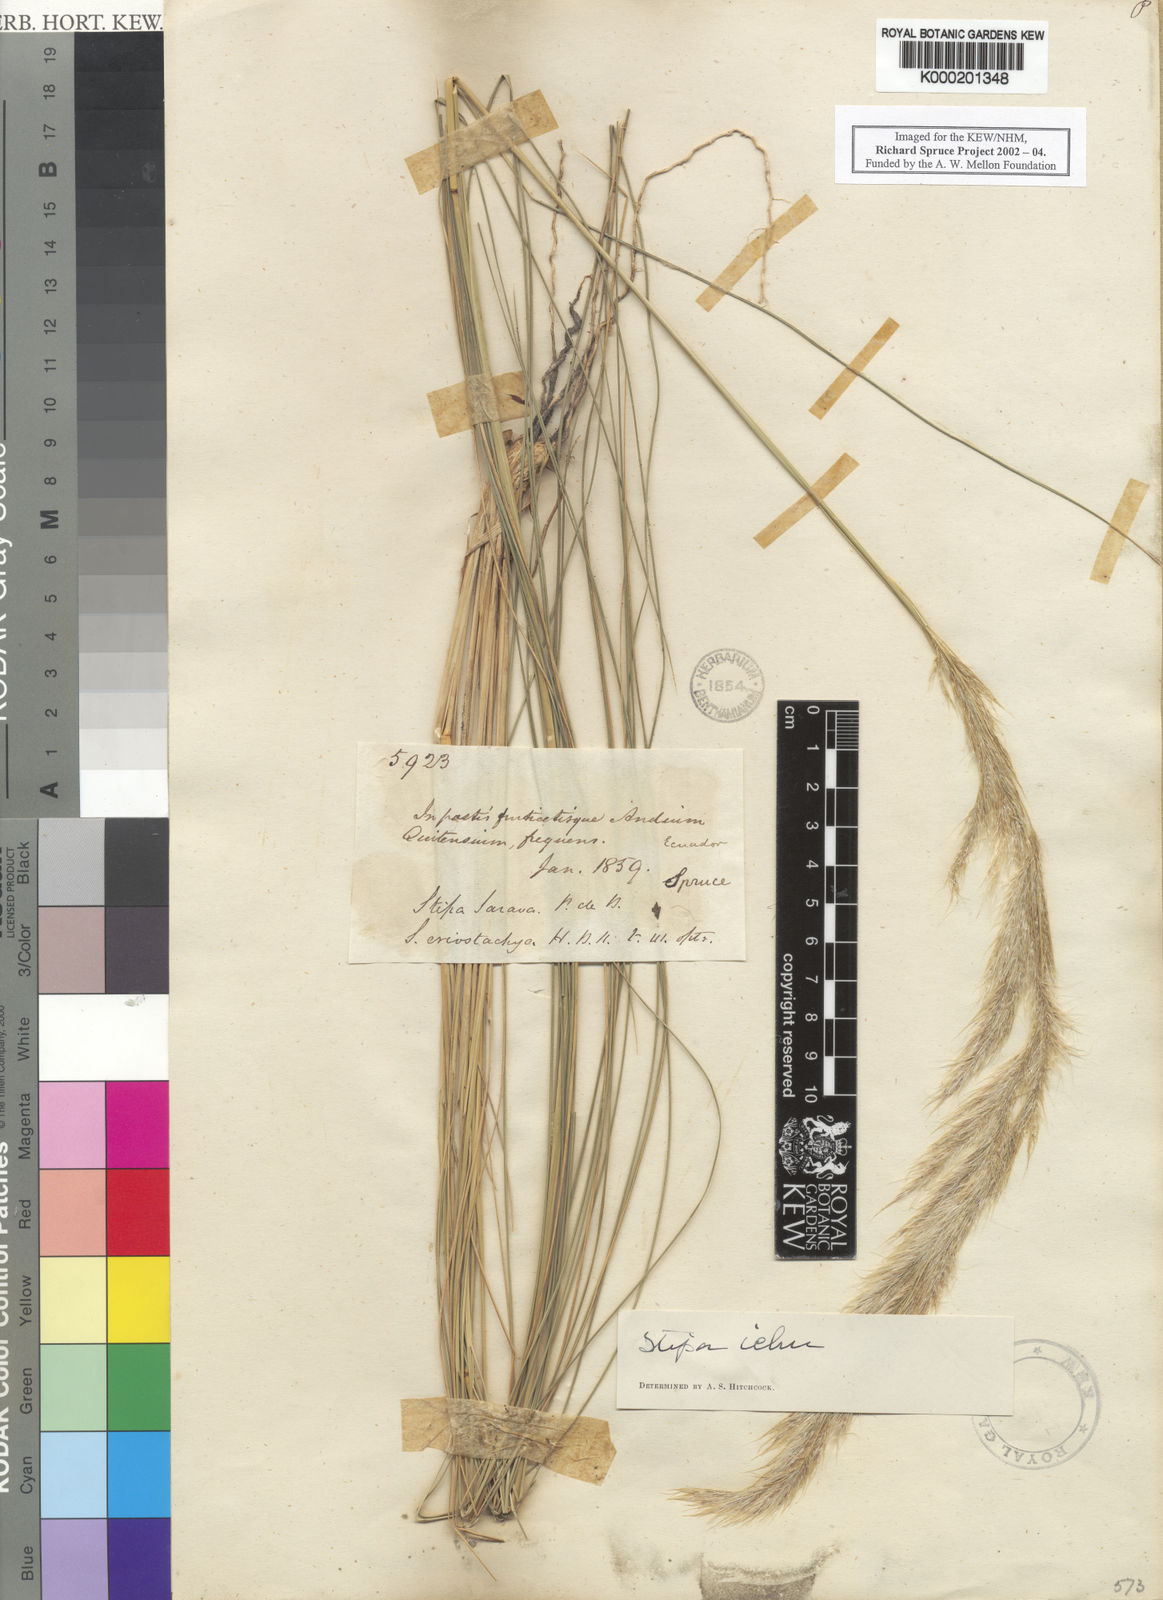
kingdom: Plantae
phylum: Tracheophyta
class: Liliopsida
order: Poales
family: Poaceae
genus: Jarava
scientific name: Jarava ichu
